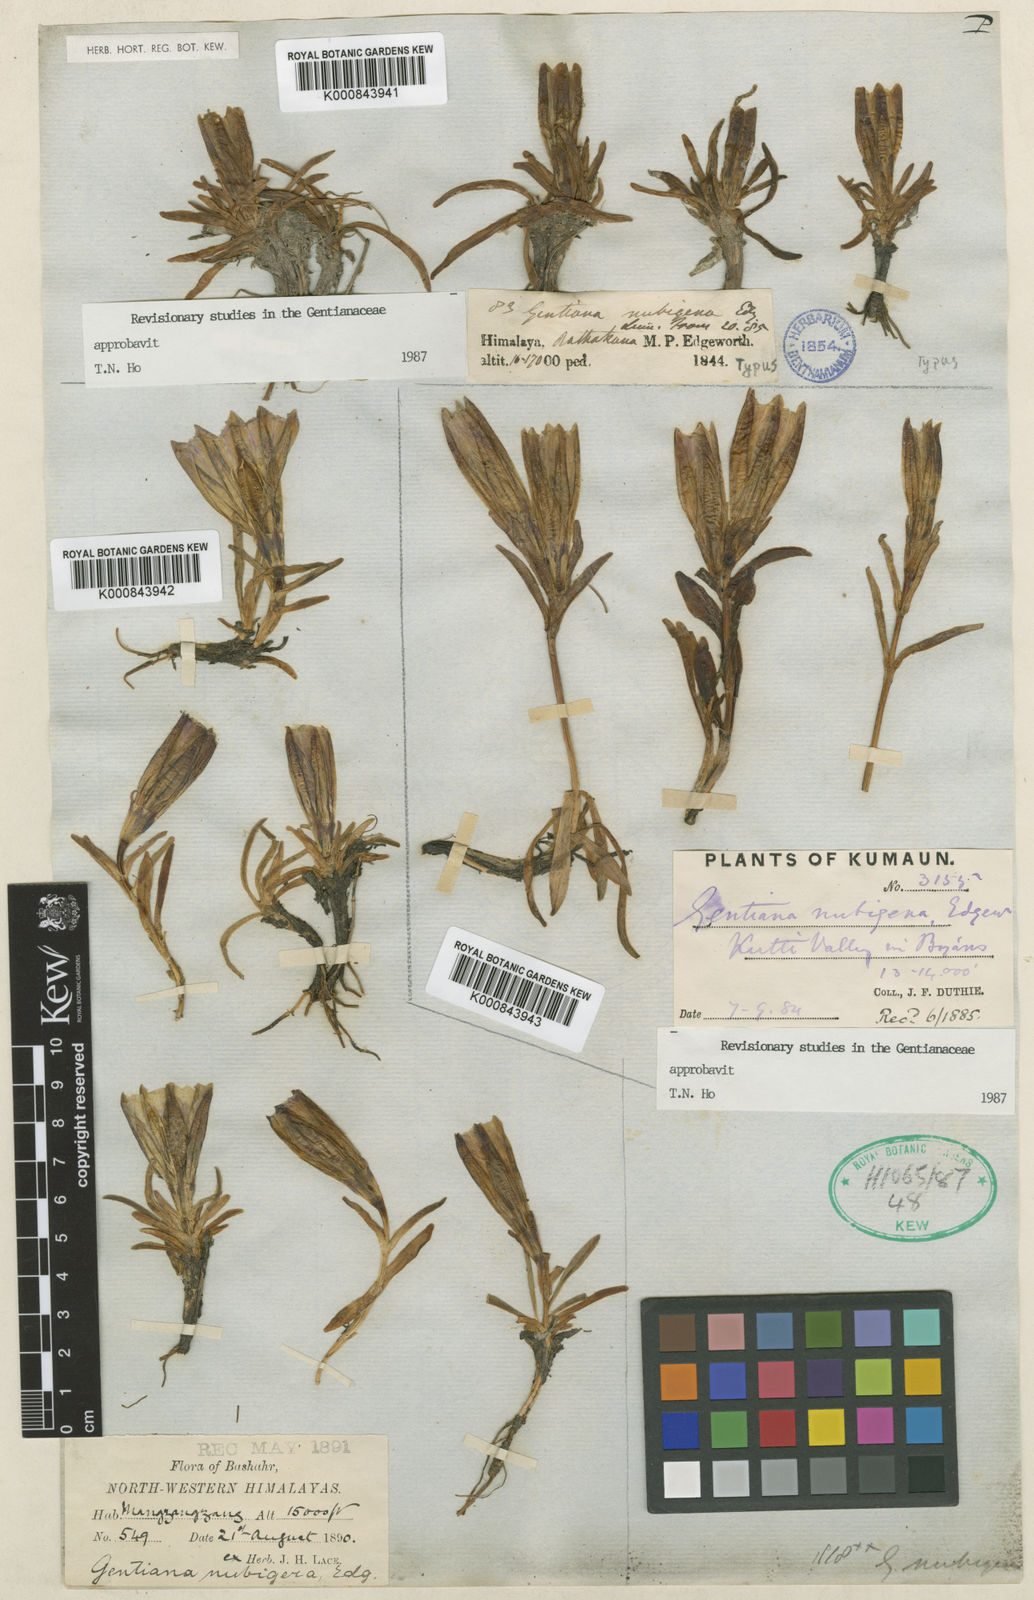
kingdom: Plantae
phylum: Tracheophyta
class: Magnoliopsida
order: Gentianales
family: Gentianaceae
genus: Gentiana
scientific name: Gentiana nubigena
